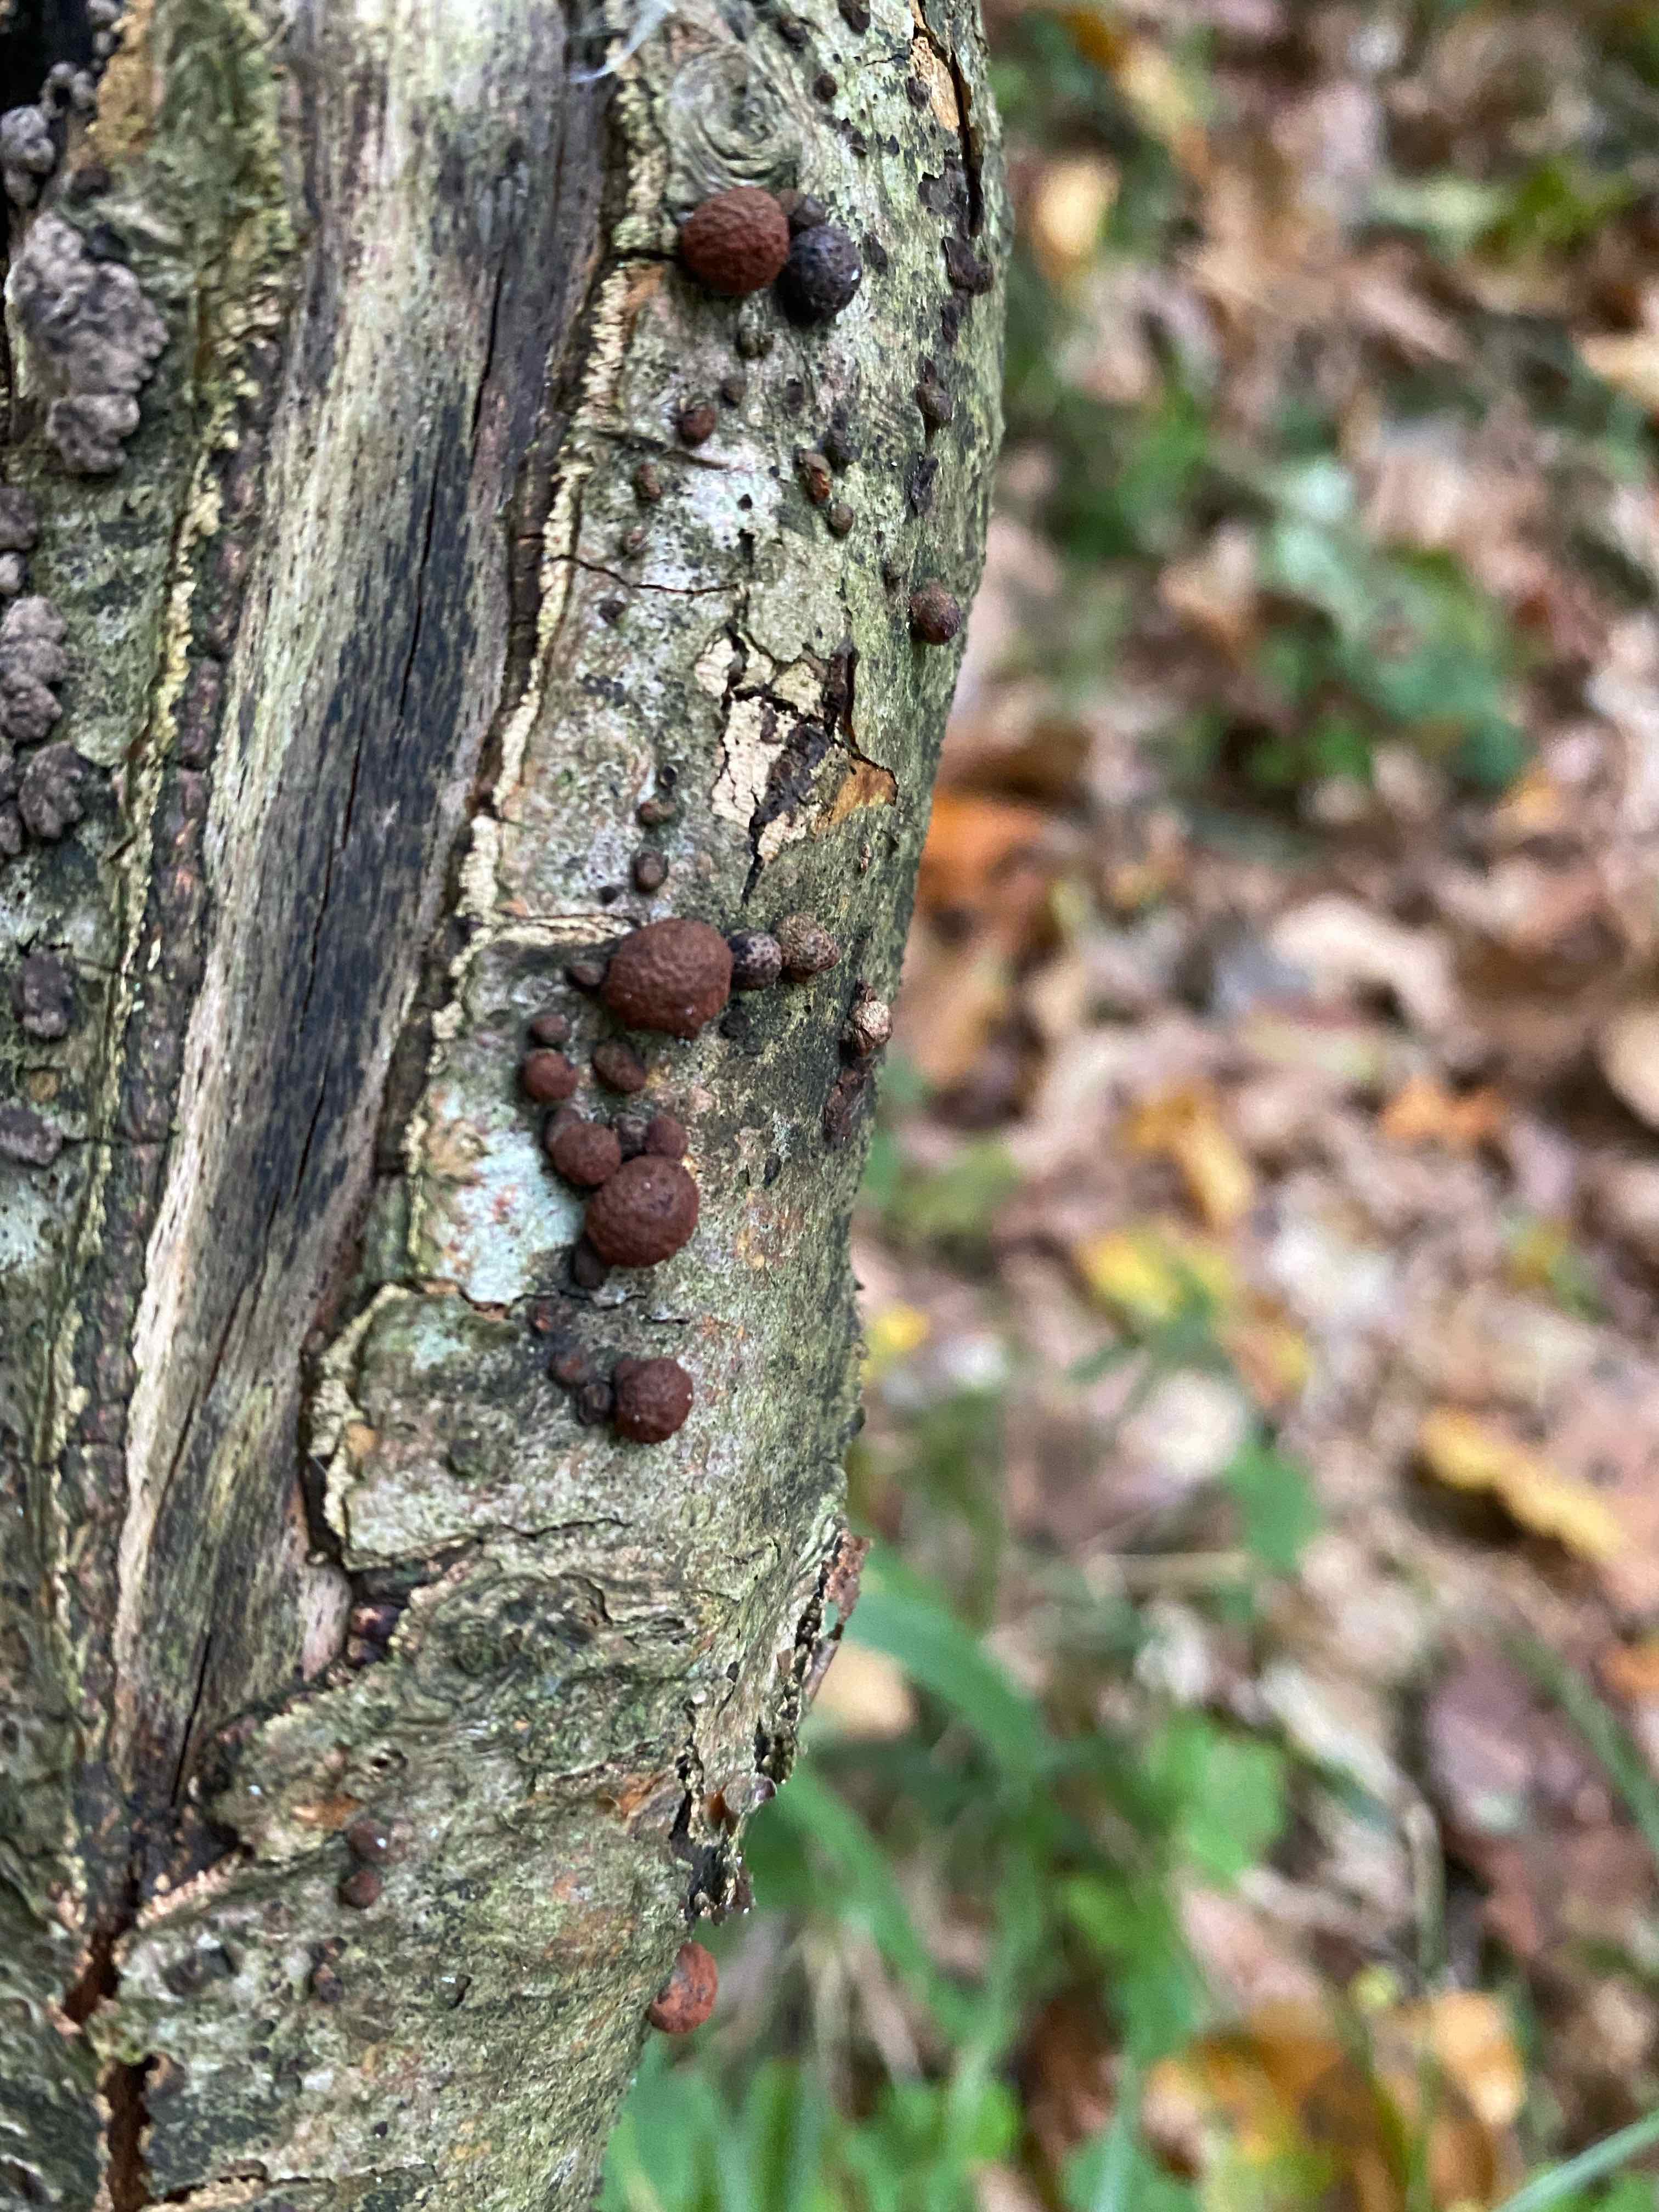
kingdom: Fungi
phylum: Ascomycota
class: Sordariomycetes
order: Xylariales
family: Hypoxylaceae
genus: Hypoxylon
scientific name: Hypoxylon fragiforme
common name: kuljordbær
